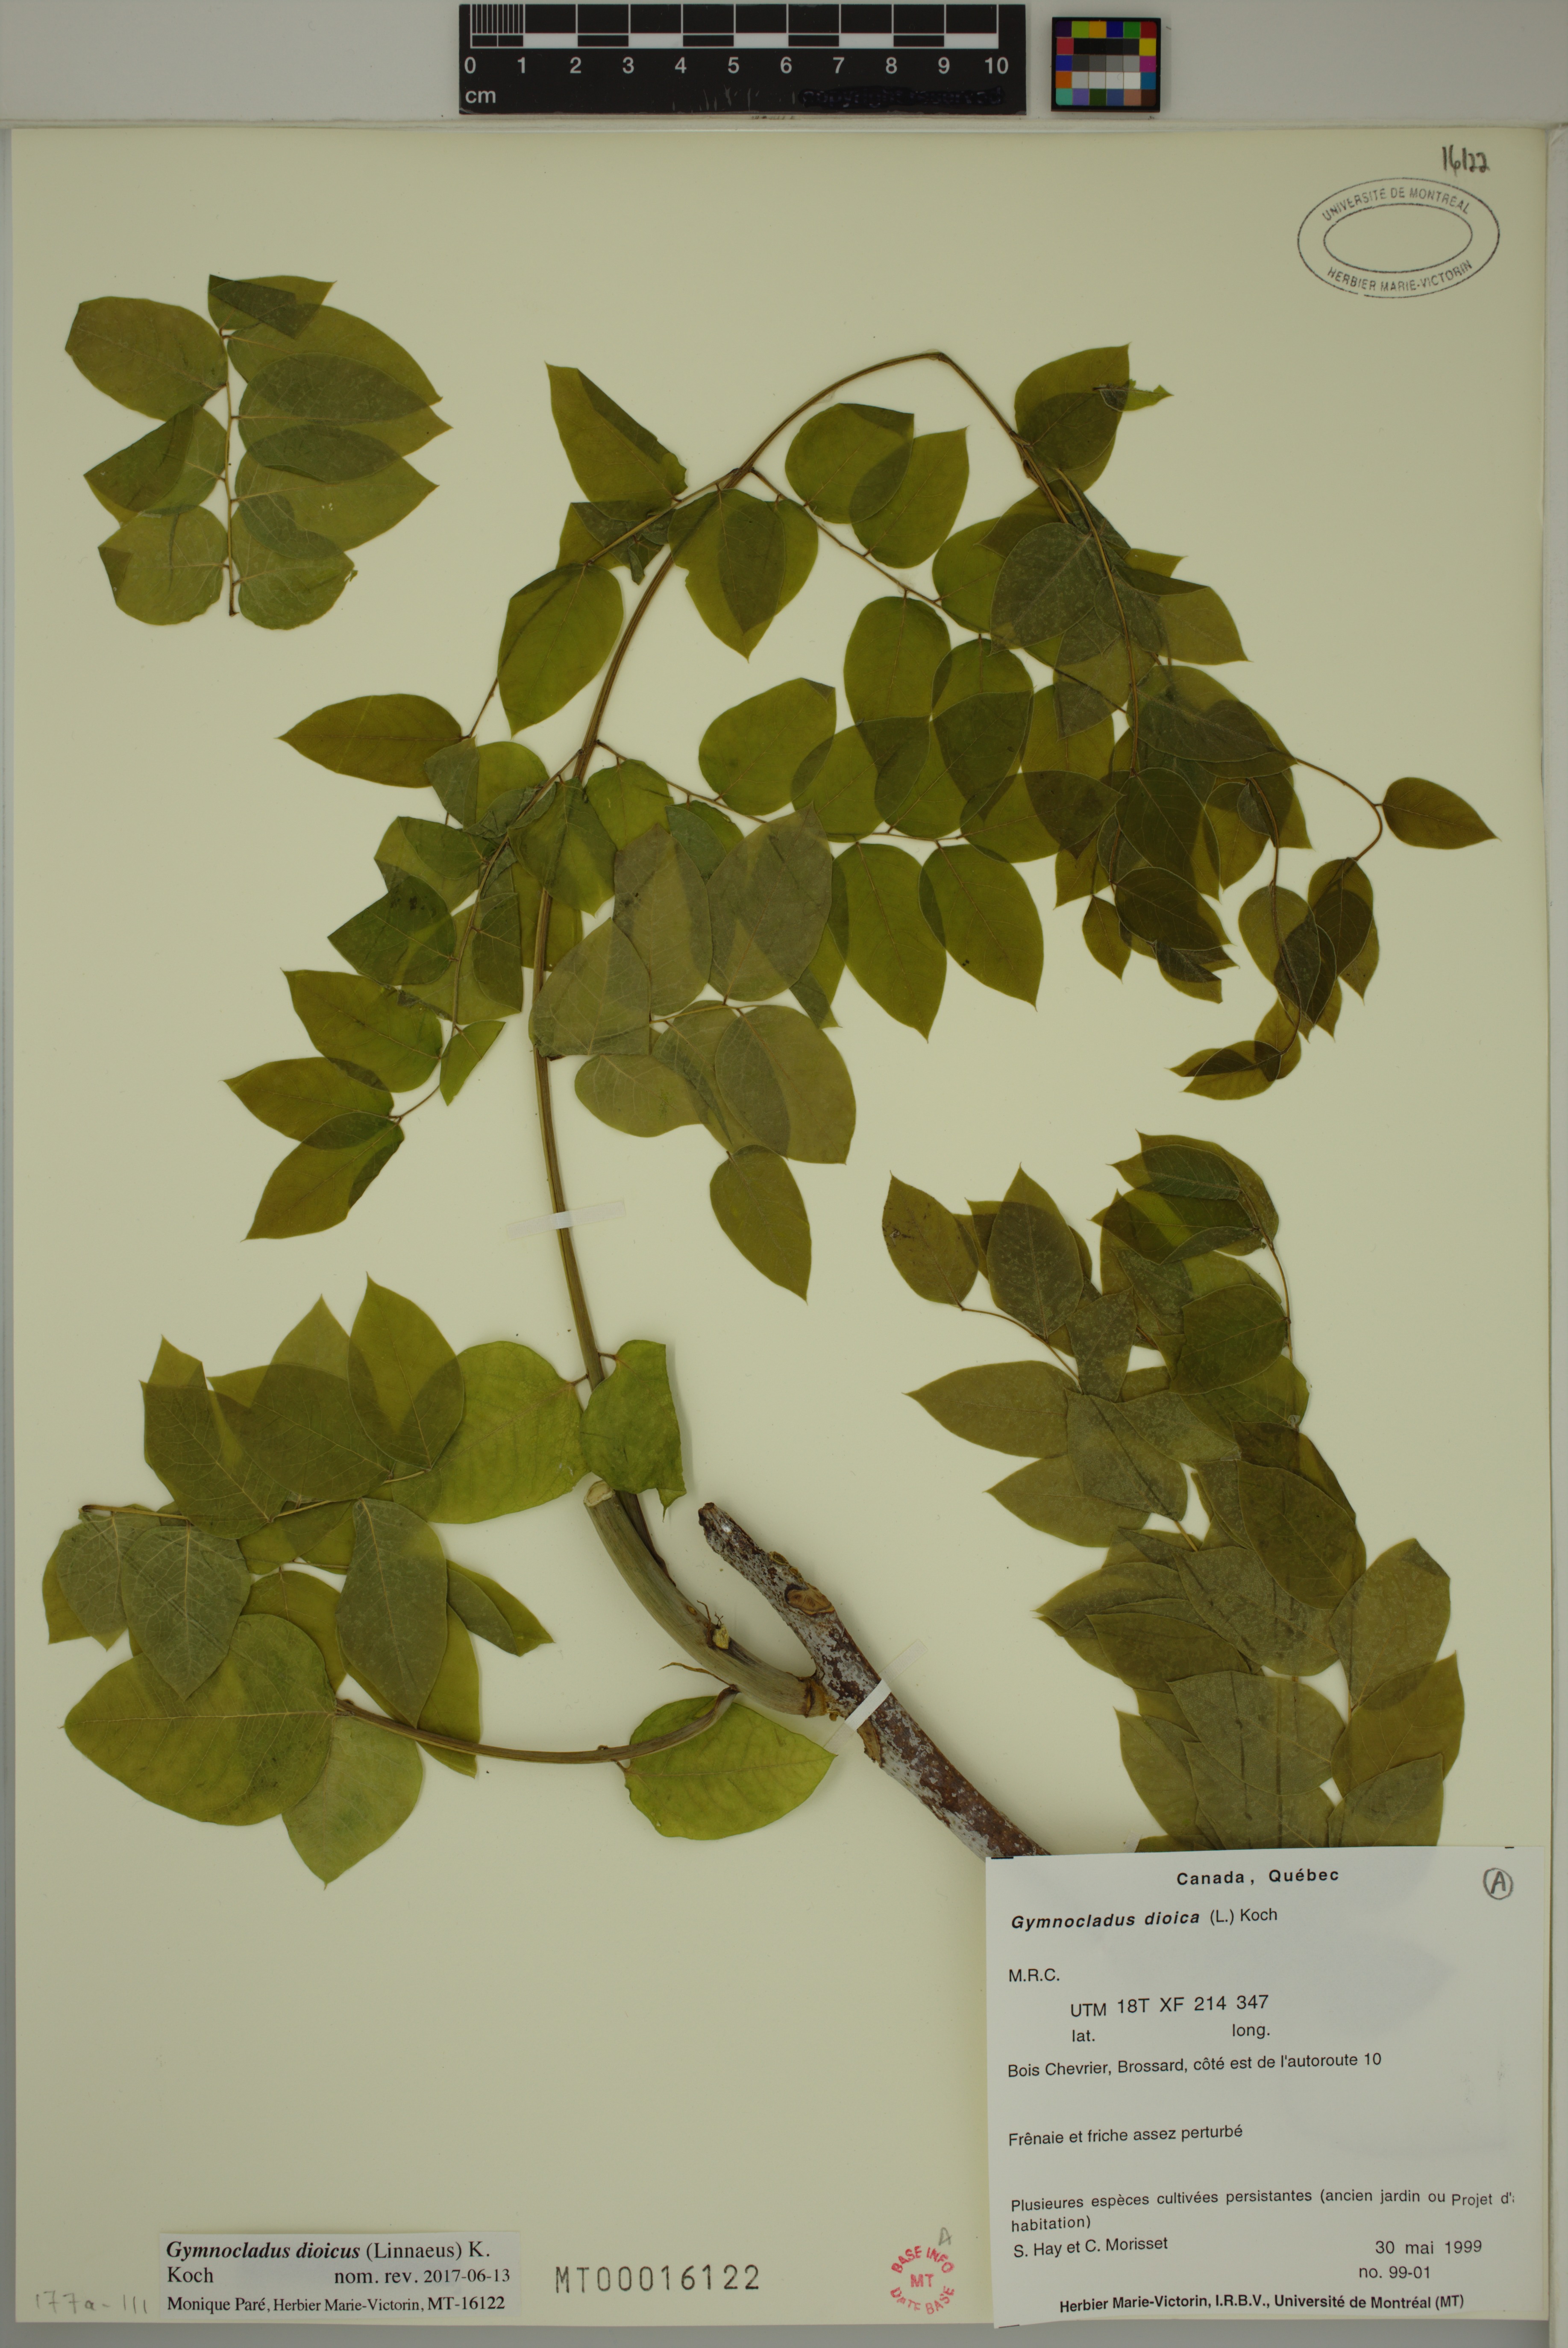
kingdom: Plantae
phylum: Tracheophyta
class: Magnoliopsida
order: Fabales
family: Fabaceae
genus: Gymnocladus
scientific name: Gymnocladus dioicus
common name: Kentucky coffee-tree
